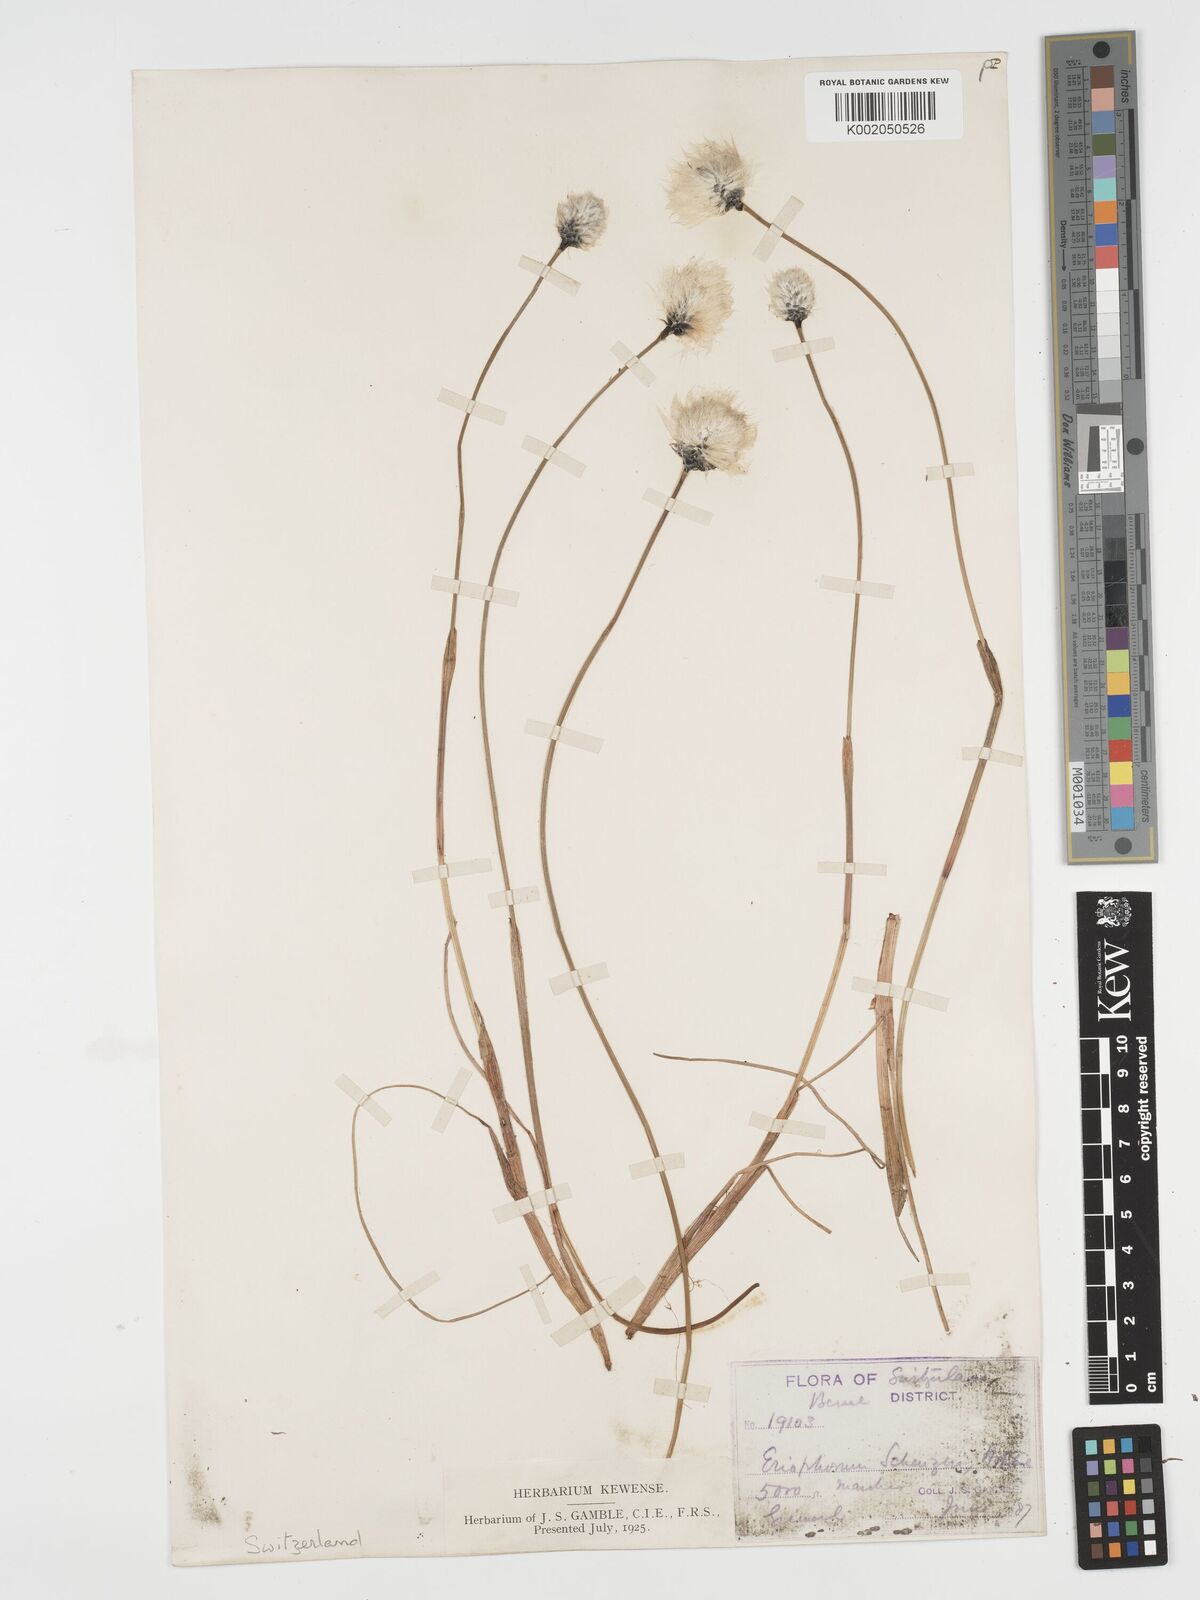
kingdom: Plantae
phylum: Tracheophyta
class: Liliopsida
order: Poales
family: Cyperaceae
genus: Eriophorum
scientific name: Eriophorum scheuchzeri
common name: Scheuchzer's cottongrass
